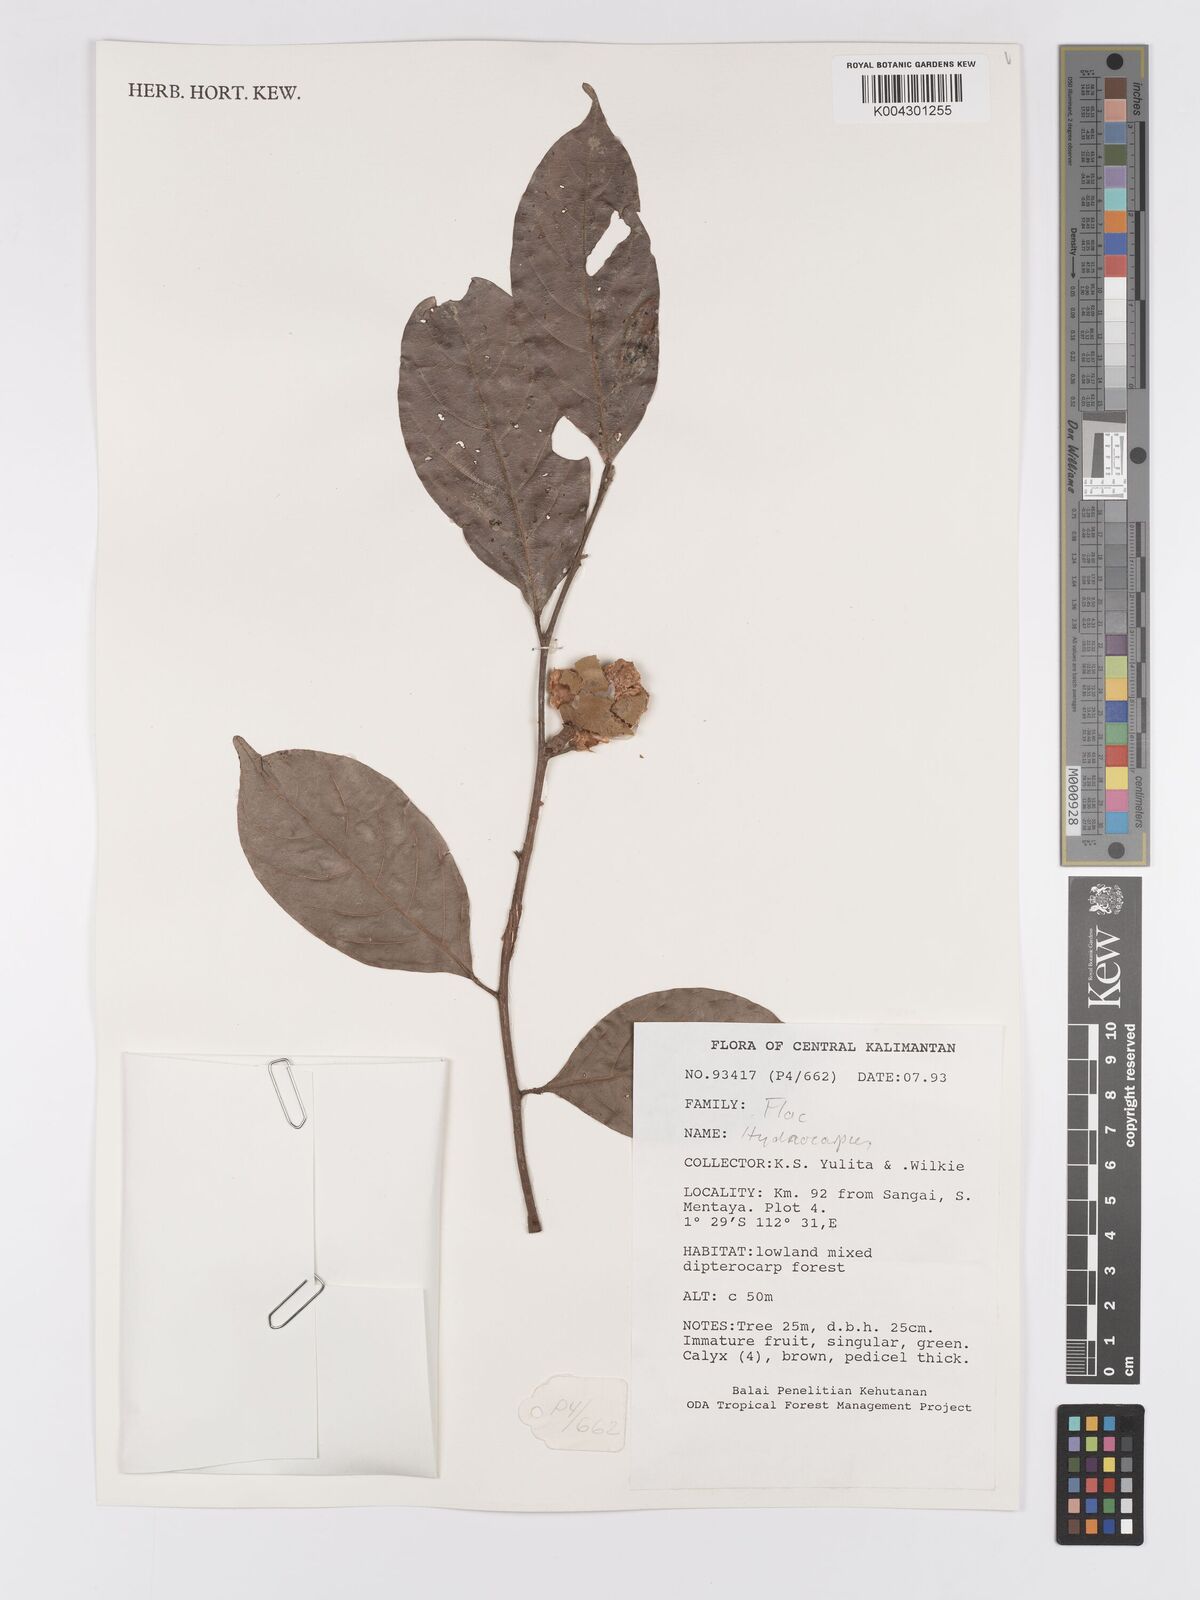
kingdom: Plantae
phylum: Tracheophyta
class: Magnoliopsida
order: Malpighiales
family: Achariaceae
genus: Hydnocarpus
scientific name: Hydnocarpus
